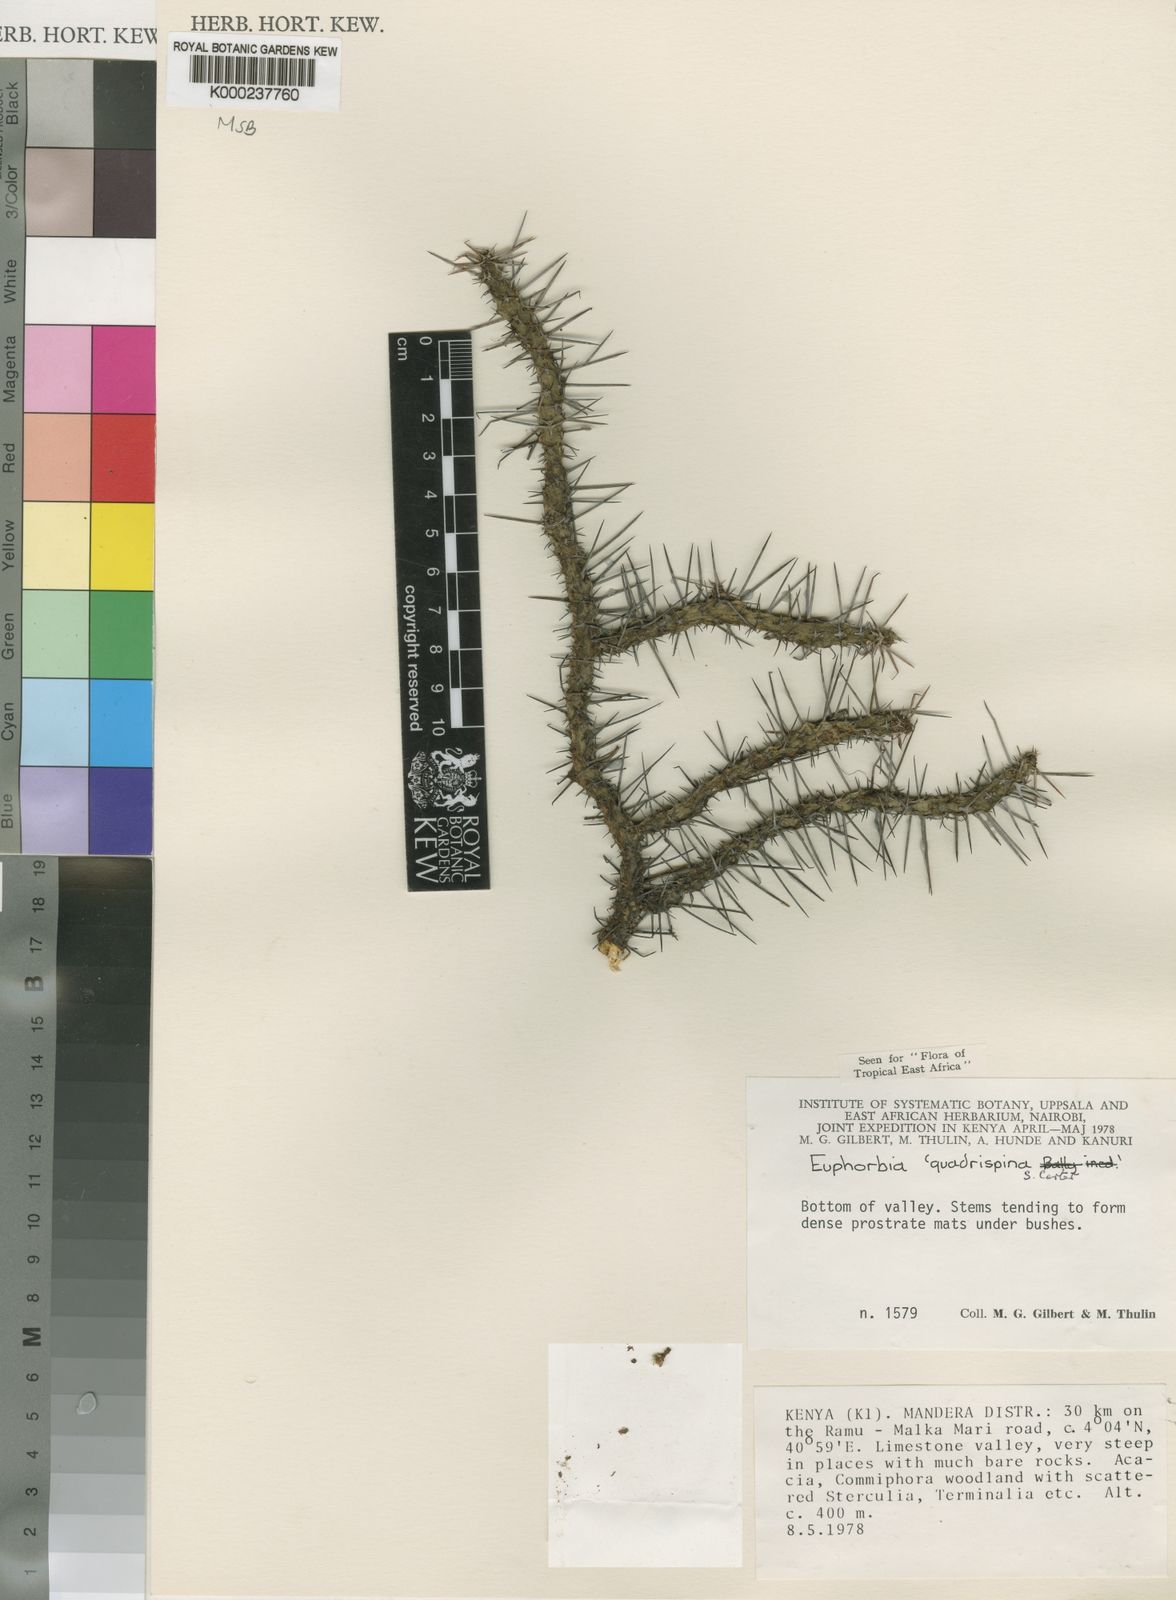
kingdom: Plantae
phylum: Tracheophyta
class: Magnoliopsida
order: Malpighiales
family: Euphorbiaceae
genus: Euphorbia
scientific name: Euphorbia quadrispina
